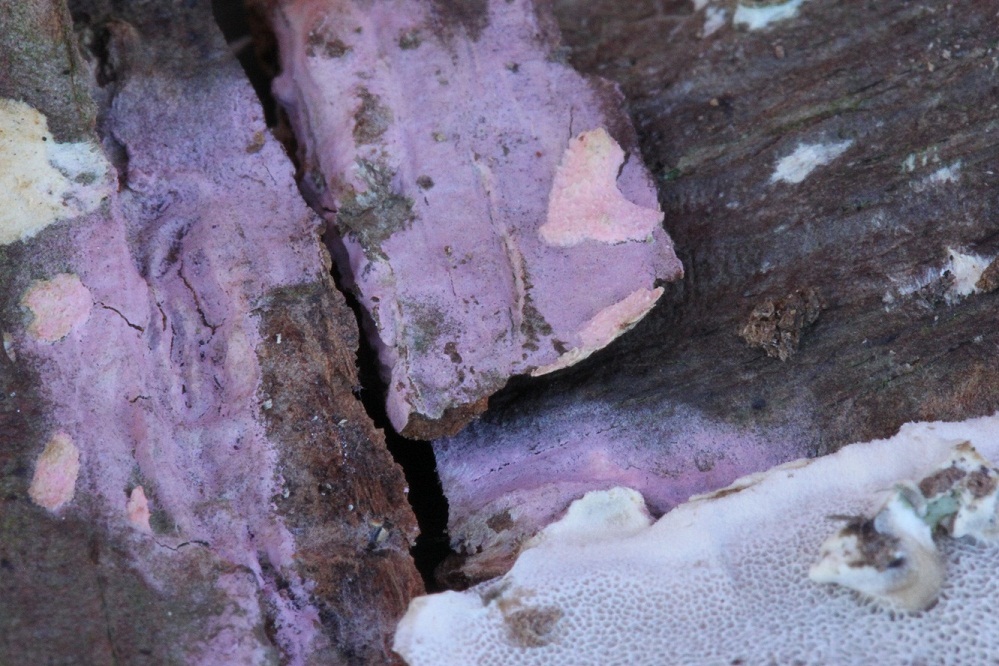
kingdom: Fungi
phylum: Basidiomycota
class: Agaricomycetes
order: Cantharellales
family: Tulasnellaceae
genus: Tulasnella
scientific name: Tulasnella violea
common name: violet ballonhinde
